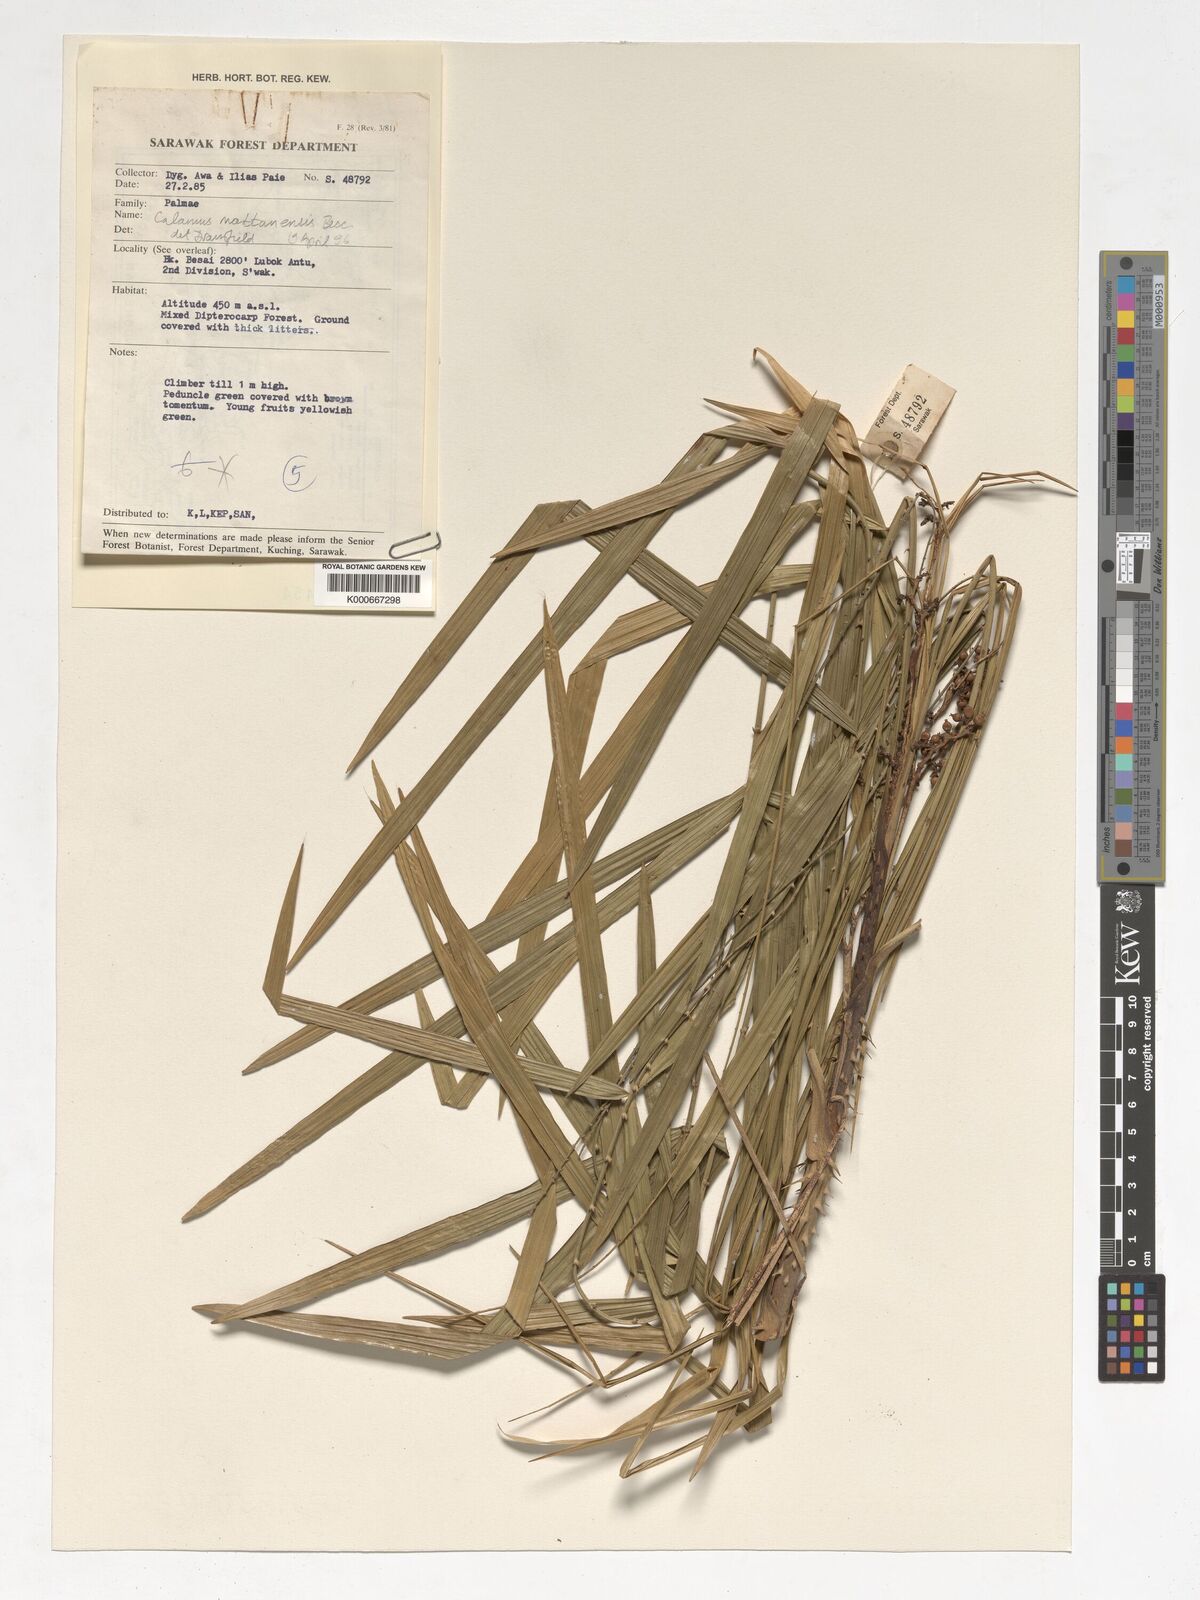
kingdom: Plantae
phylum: Tracheophyta
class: Liliopsida
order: Arecales
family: Arecaceae
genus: Calamus
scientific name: Calamus plicatus
